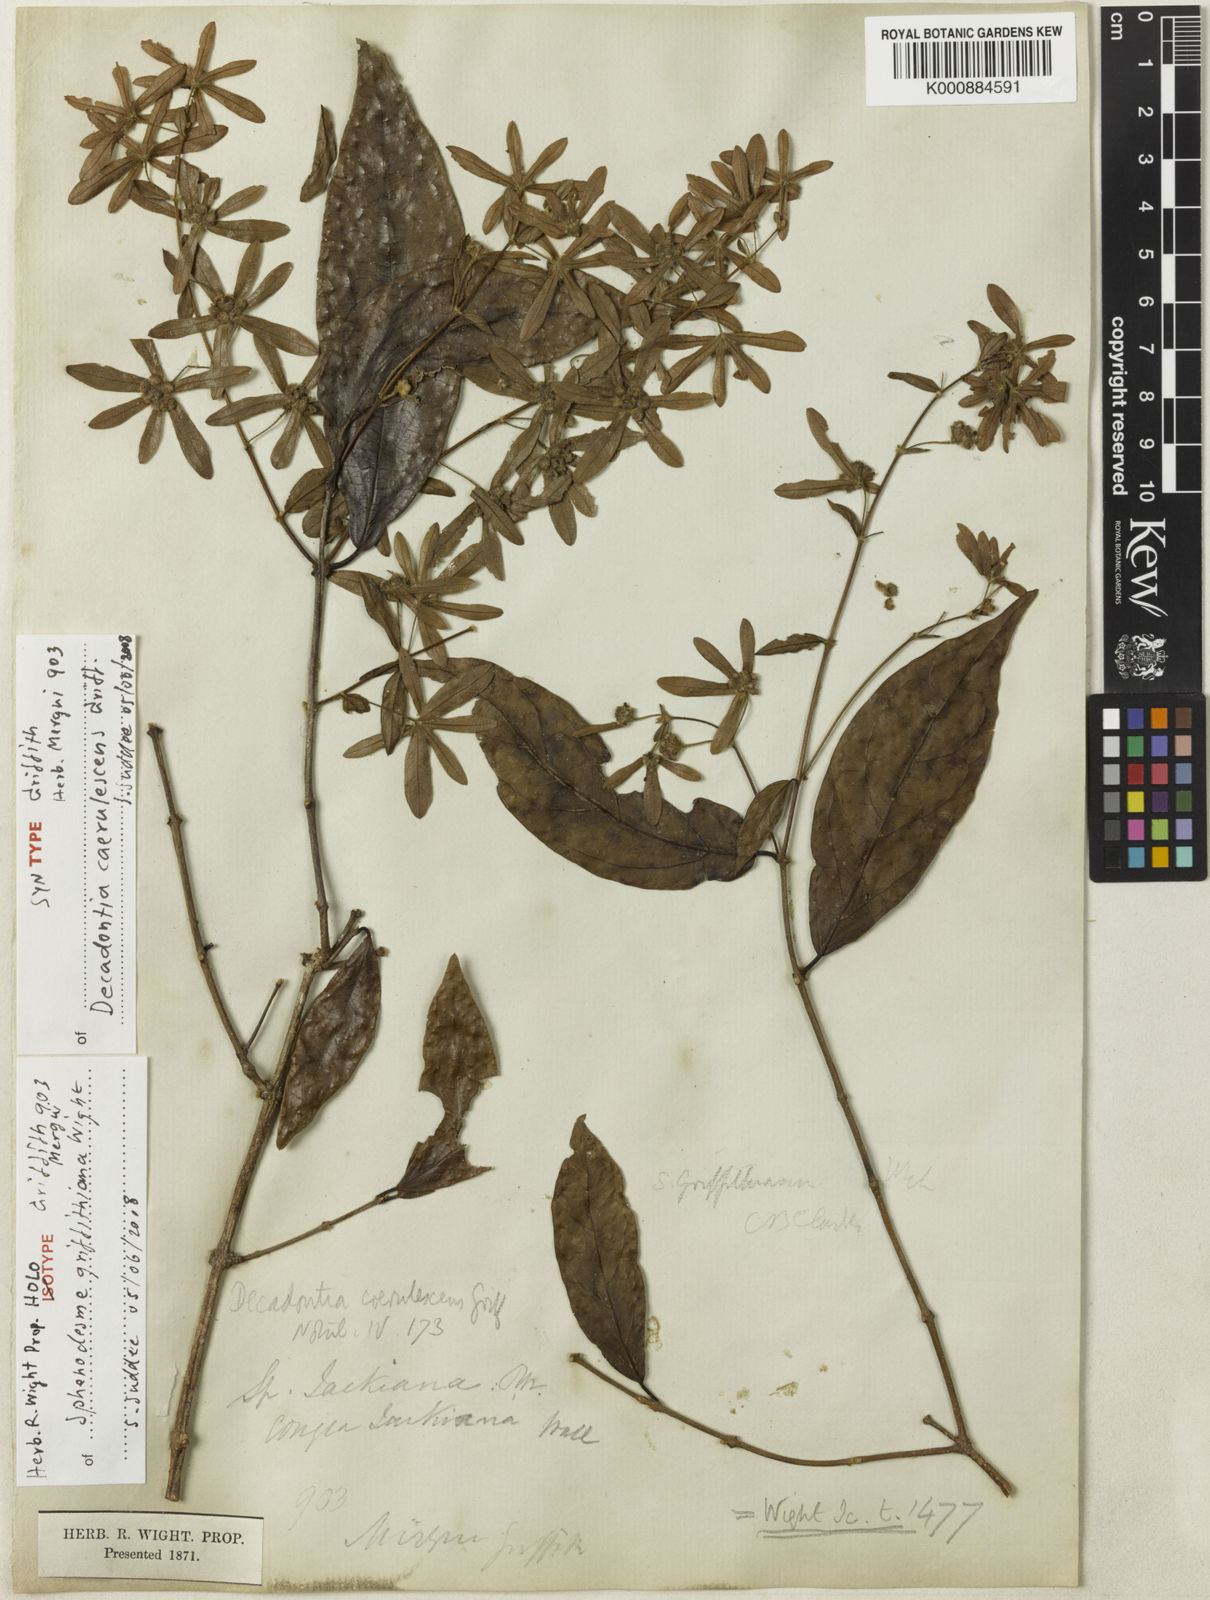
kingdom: Plantae
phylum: Tracheophyta
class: Magnoliopsida
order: Lamiales
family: Lamiaceae
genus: Sphenodesme
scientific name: Sphenodesme griffithiana
